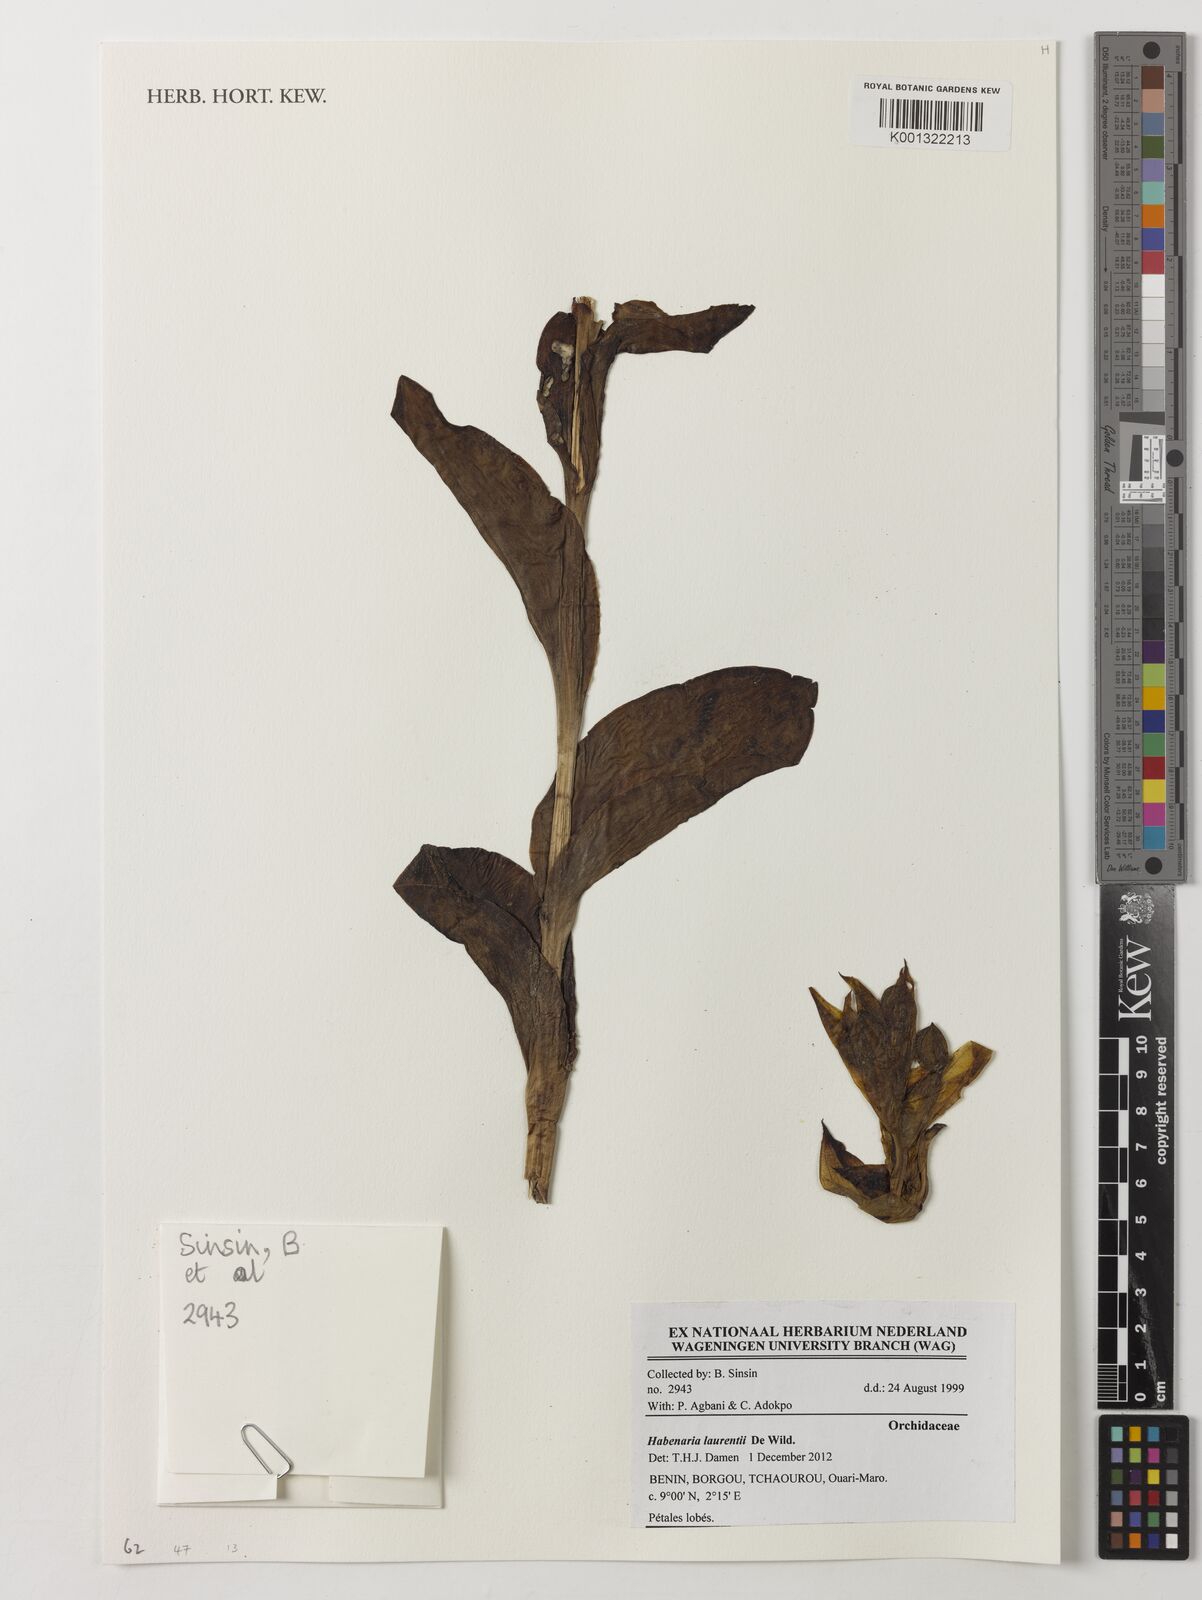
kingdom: Plantae
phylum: Tracheophyta
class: Liliopsida
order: Asparagales
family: Orchidaceae
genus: Habenaria
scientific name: Habenaria laurentii
